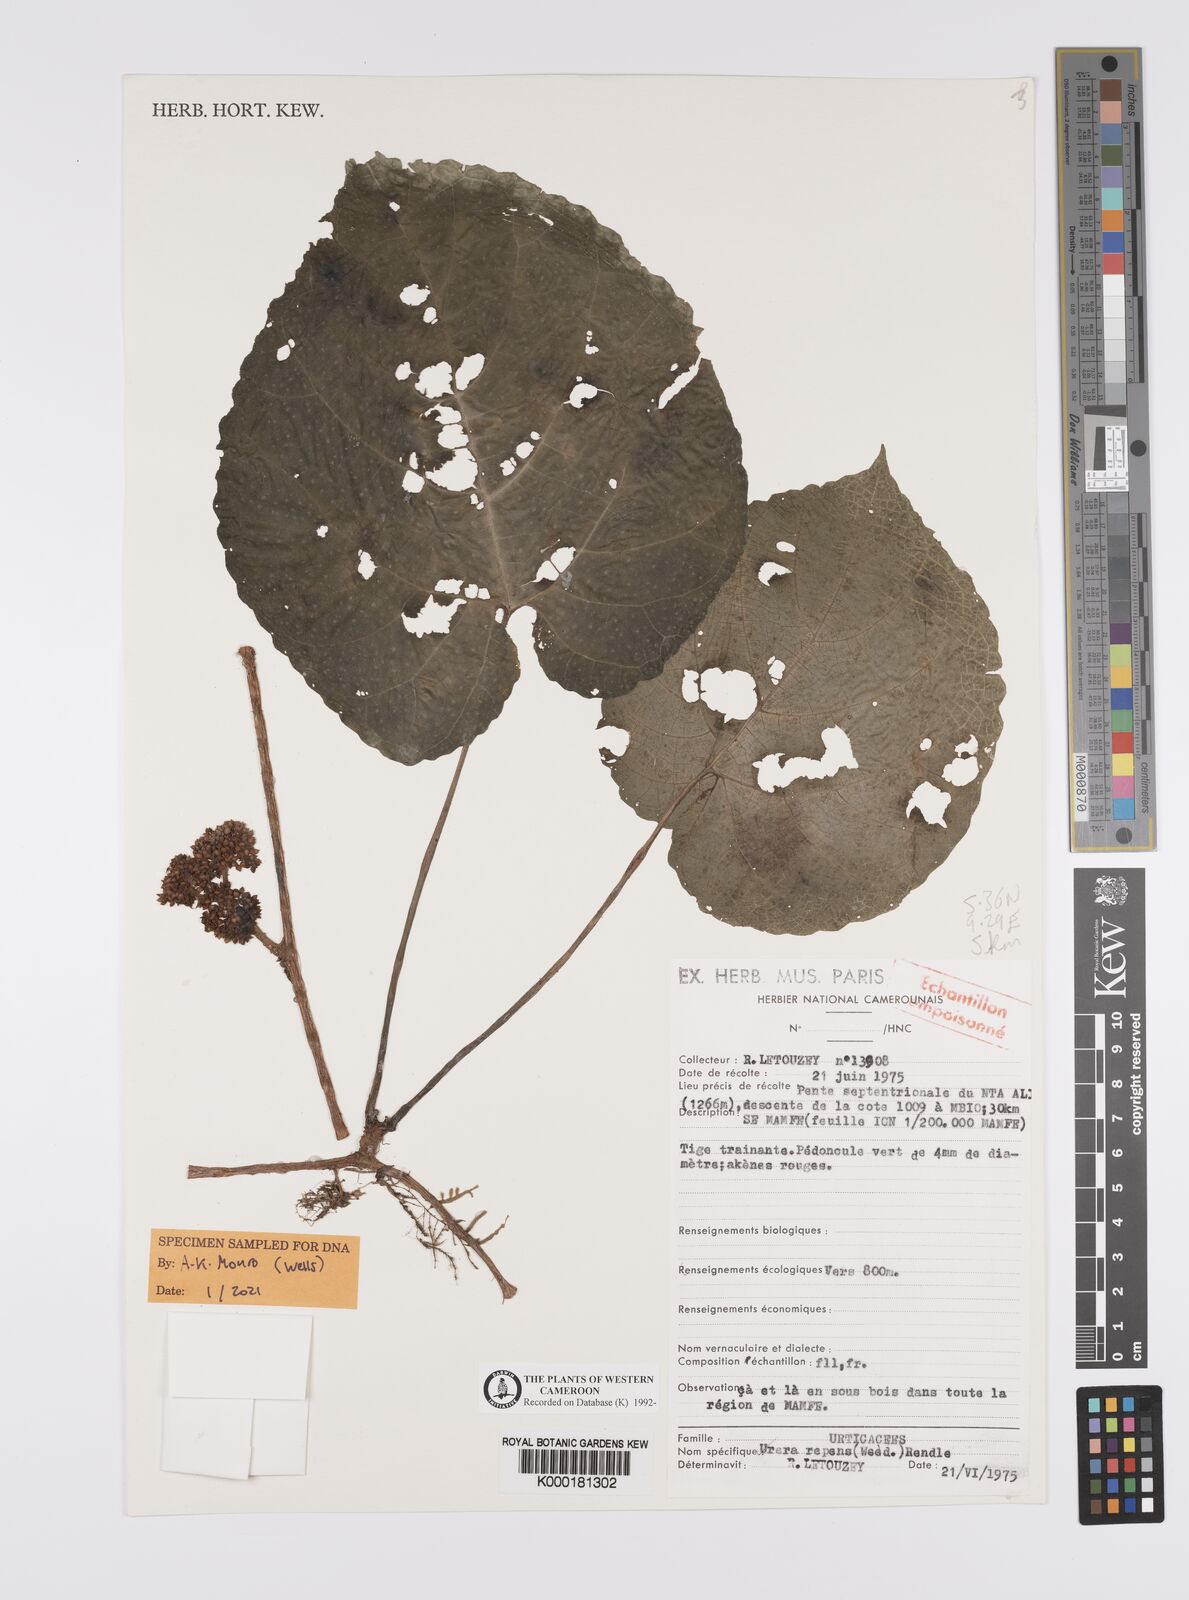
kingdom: Plantae
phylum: Tracheophyta
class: Magnoliopsida
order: Rosales
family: Urticaceae
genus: Scepocarpus
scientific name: Scepocarpus repens
